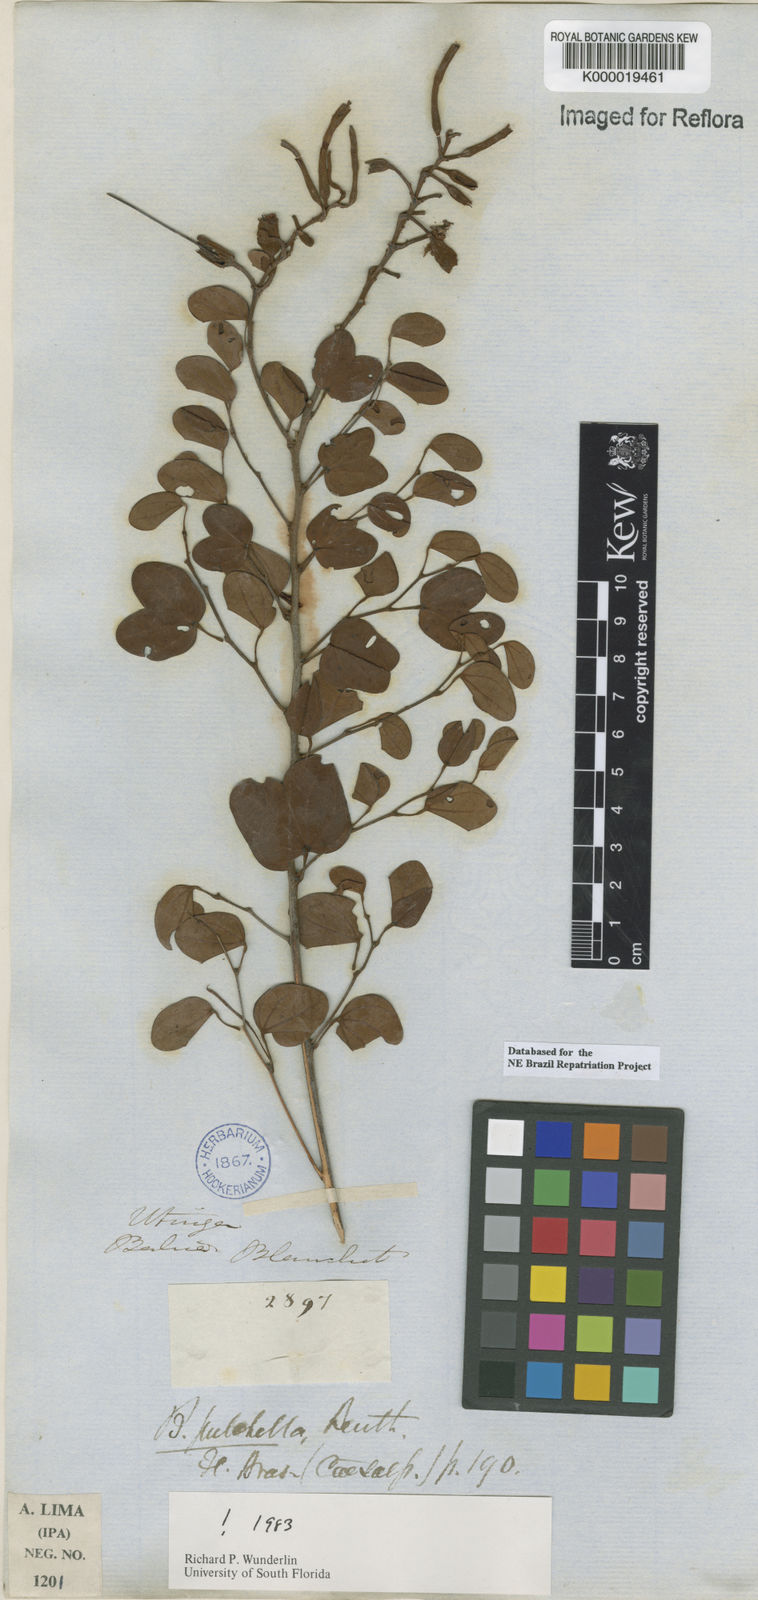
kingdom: Plantae
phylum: Tracheophyta
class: Magnoliopsida
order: Fabales
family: Fabaceae
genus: Bauhinia
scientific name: Bauhinia pulchella
